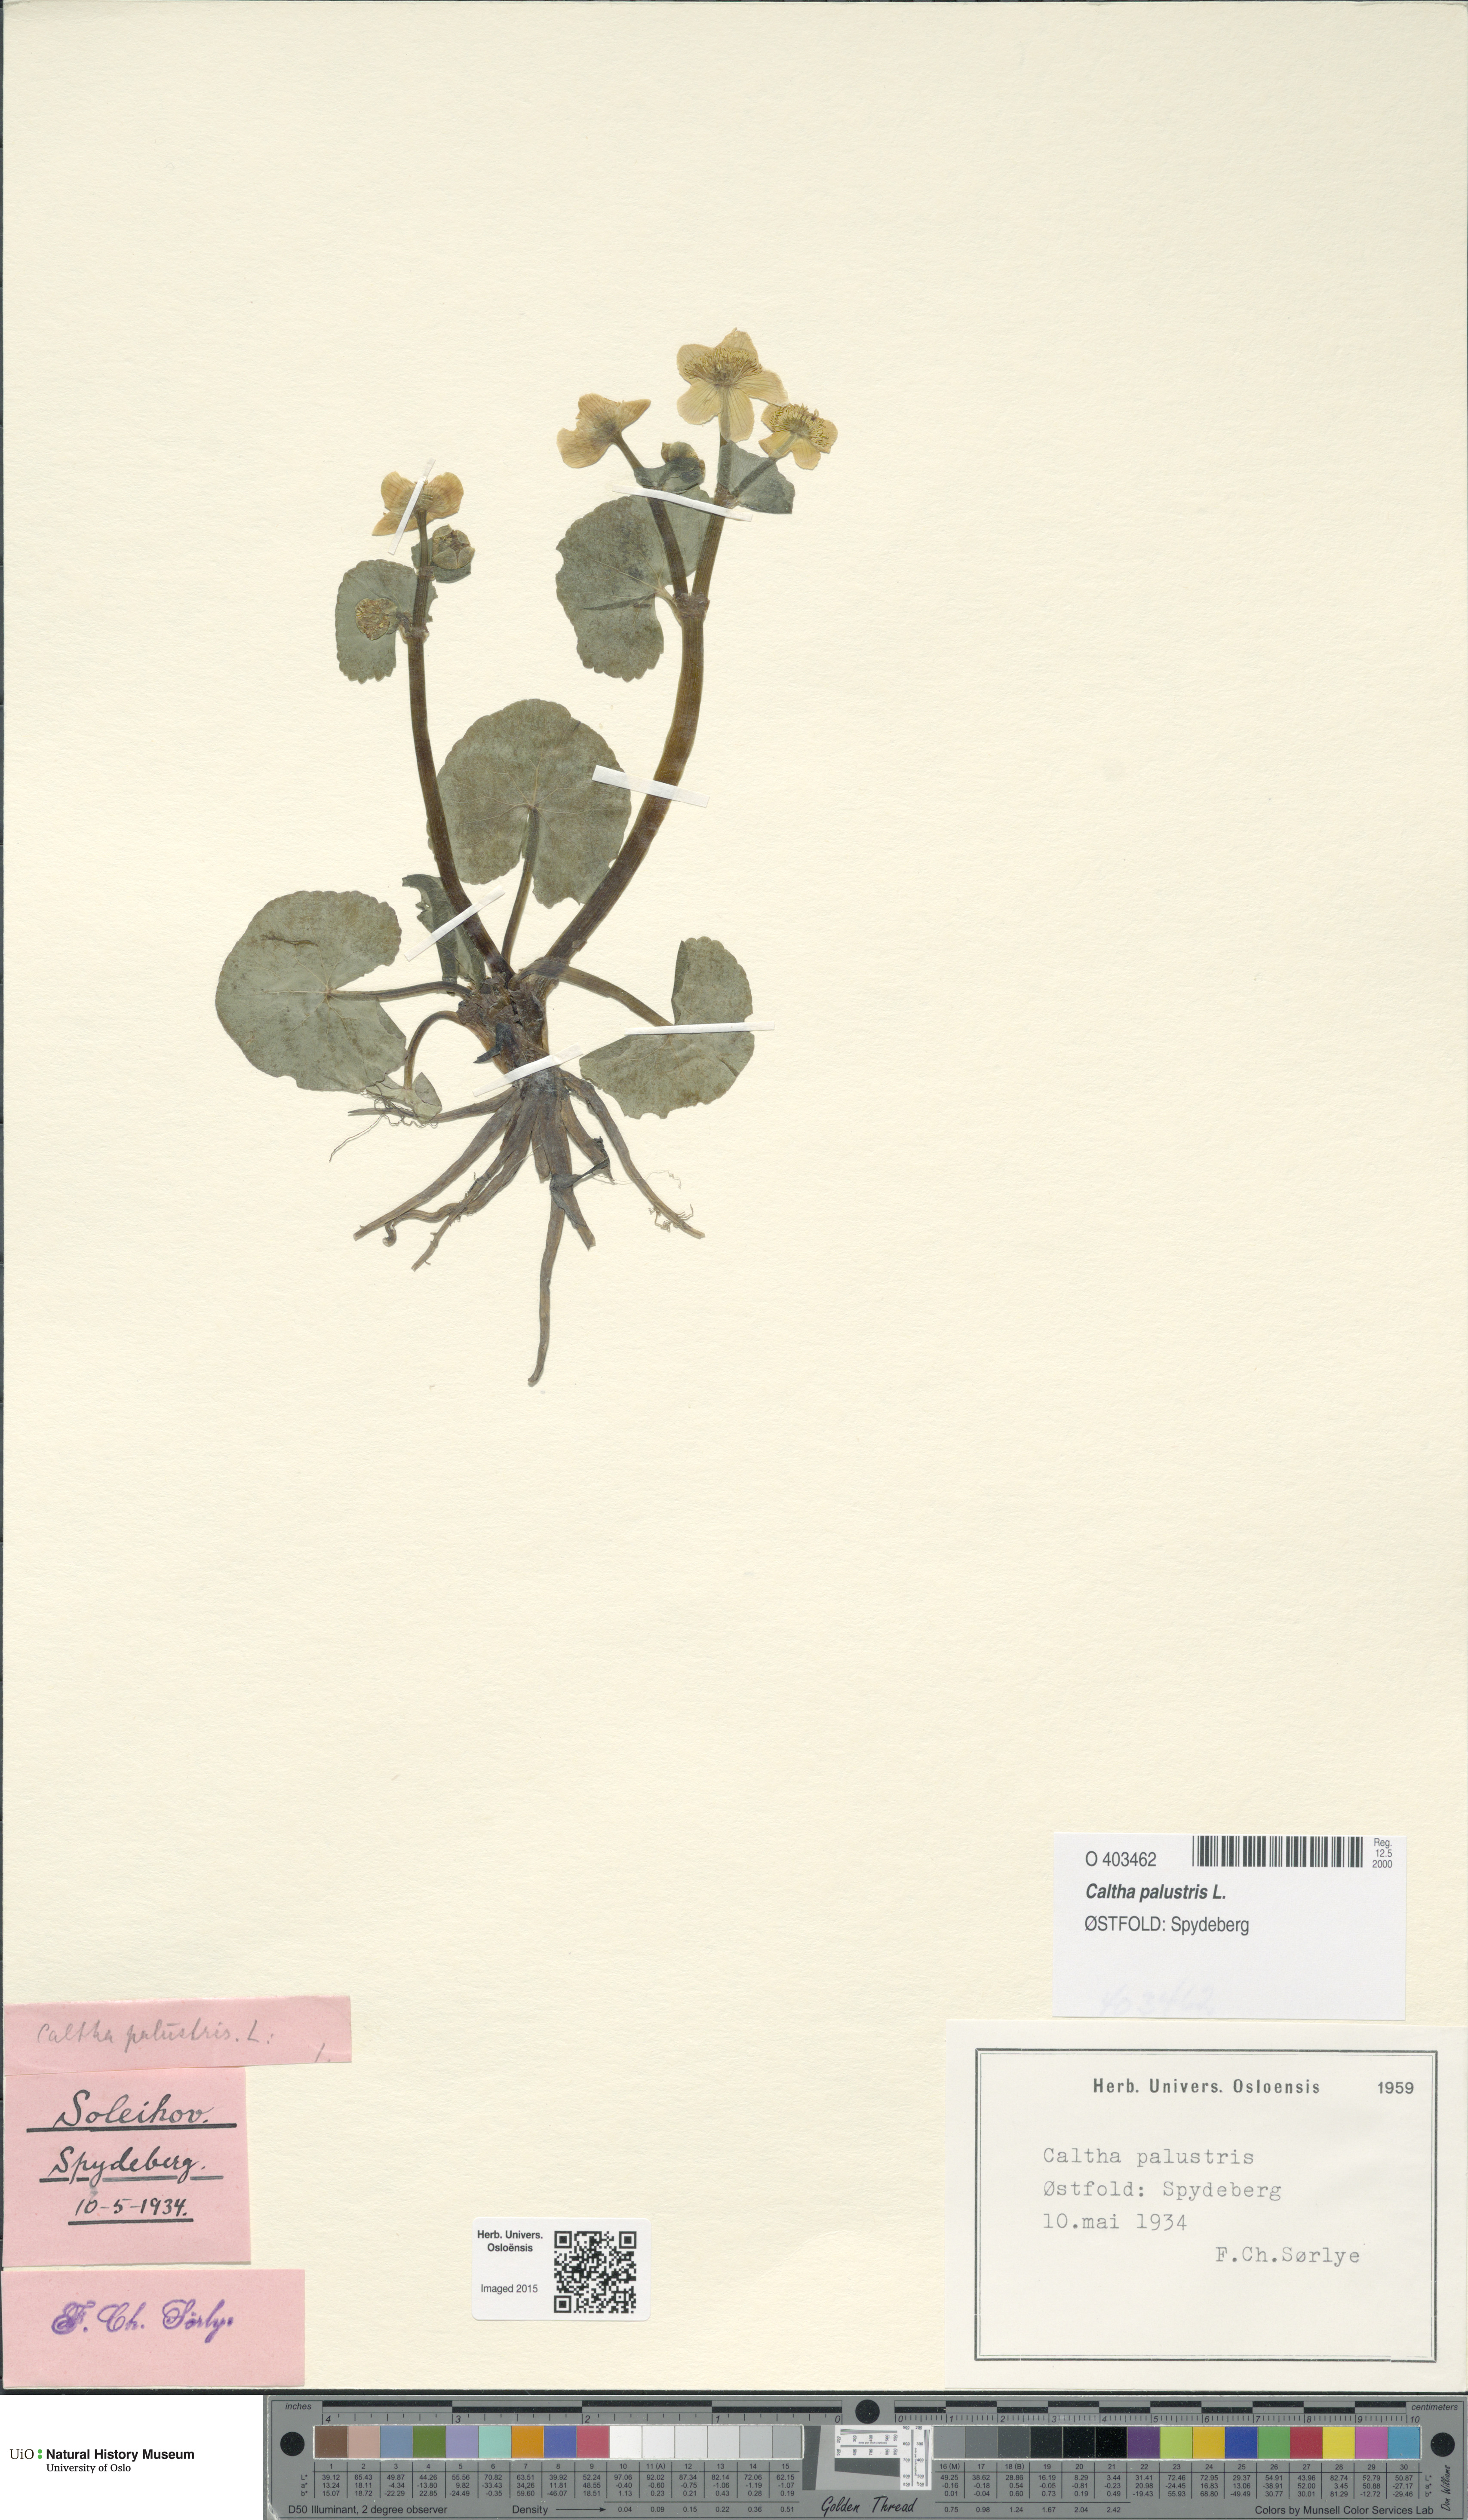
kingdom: Plantae
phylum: Tracheophyta
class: Magnoliopsida
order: Ranunculales
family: Ranunculaceae
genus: Caltha
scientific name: Caltha palustris
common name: Marsh marigold
